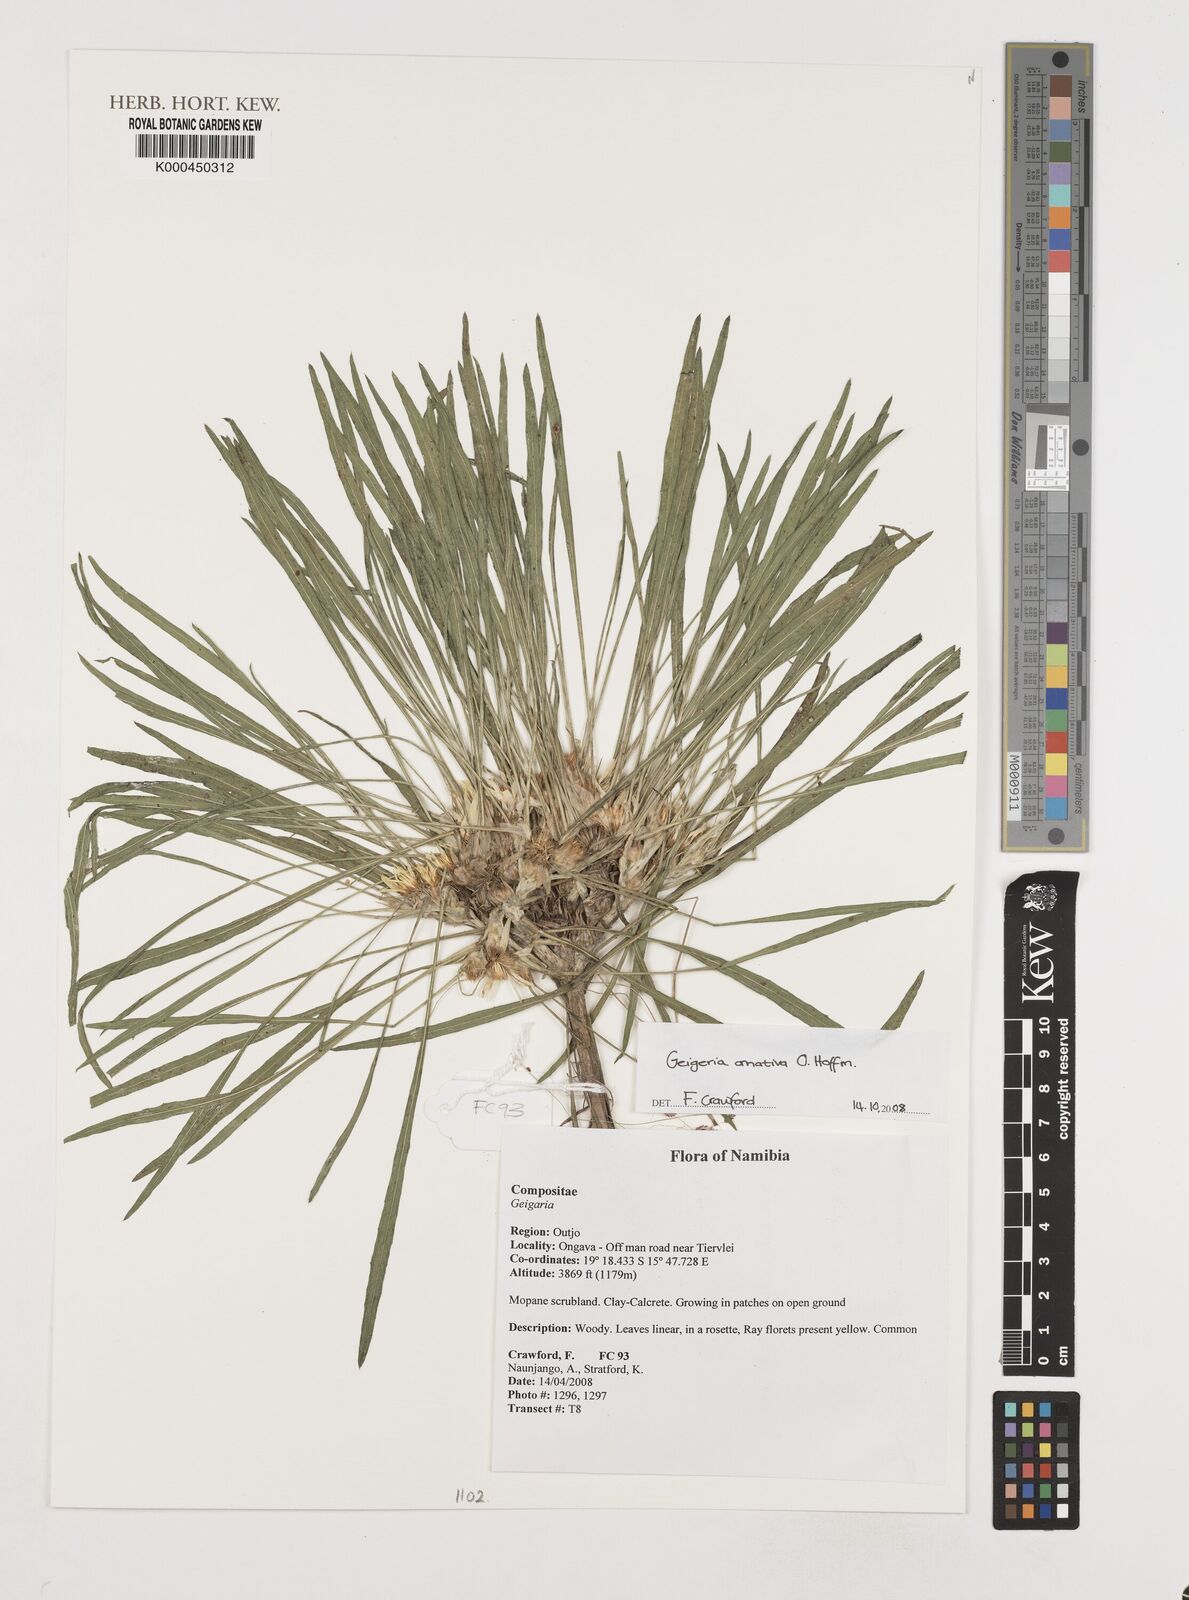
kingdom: Plantae
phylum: Tracheophyta
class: Magnoliopsida
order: Asterales
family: Asteraceae
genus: Geigeria
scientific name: Geigeria ornativa
